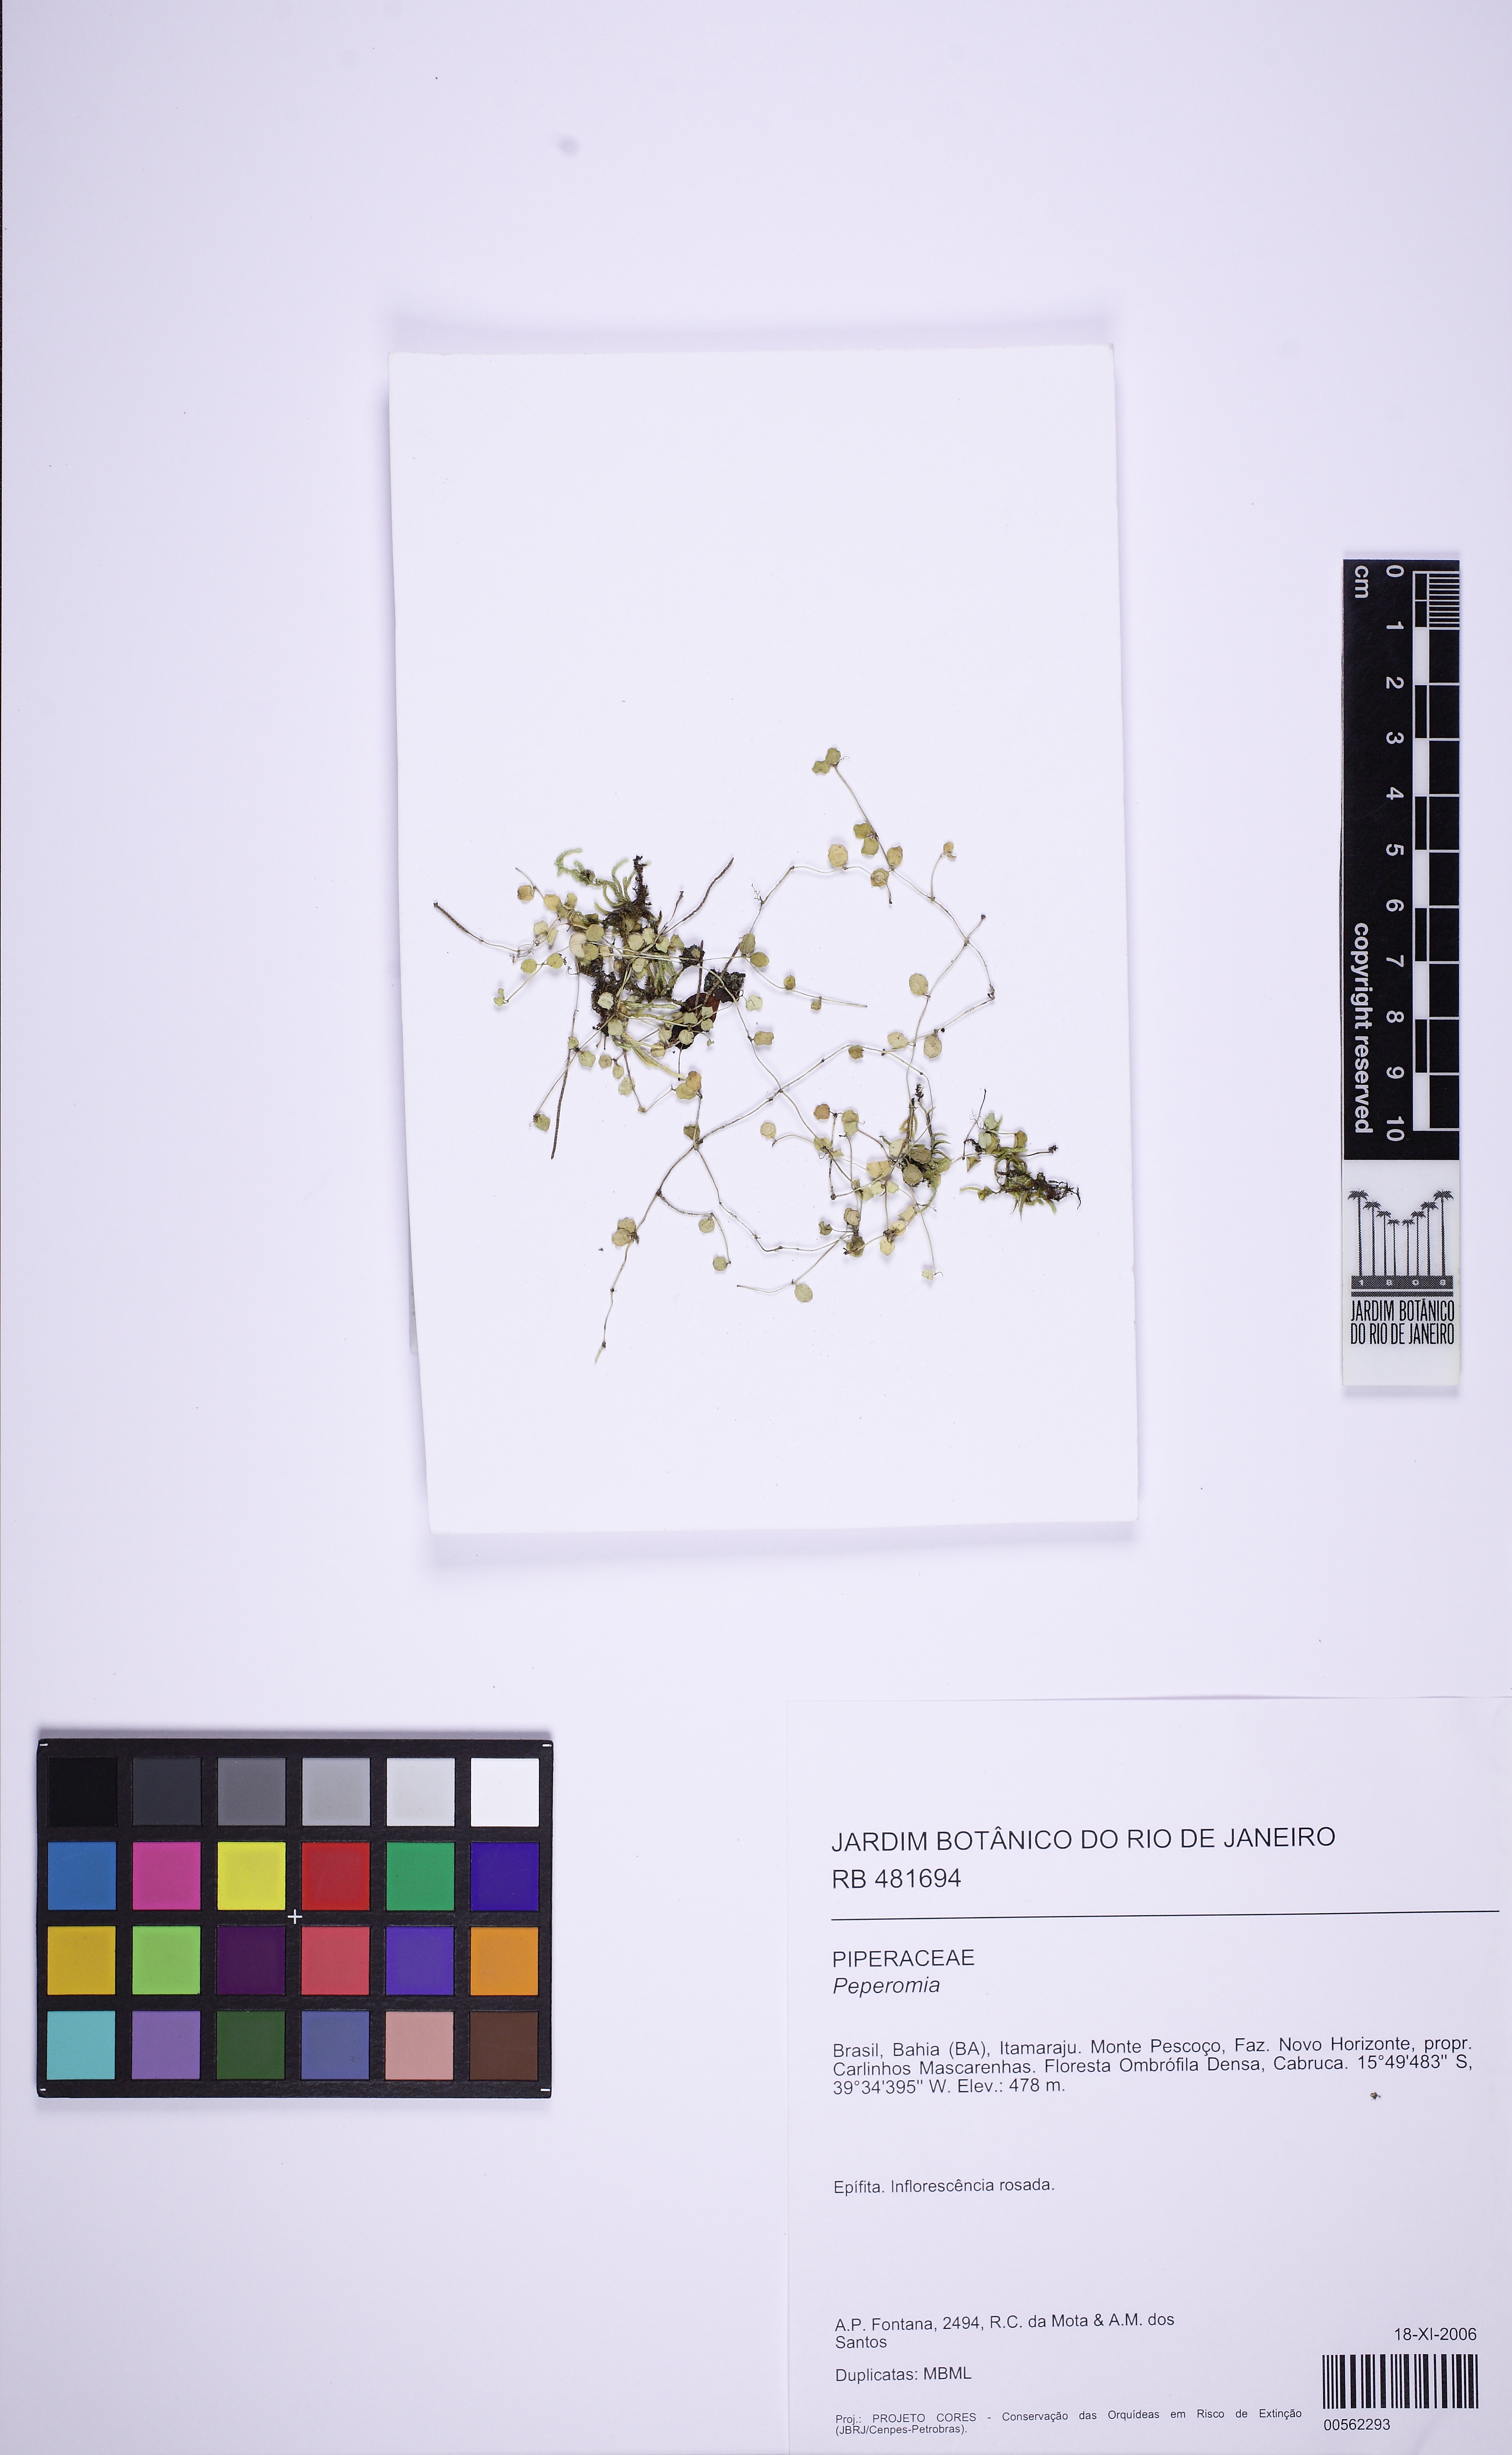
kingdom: Plantae
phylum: Tracheophyta
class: Magnoliopsida
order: Piperales
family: Piperaceae
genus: Peperomia
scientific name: Peperomia delicatula
